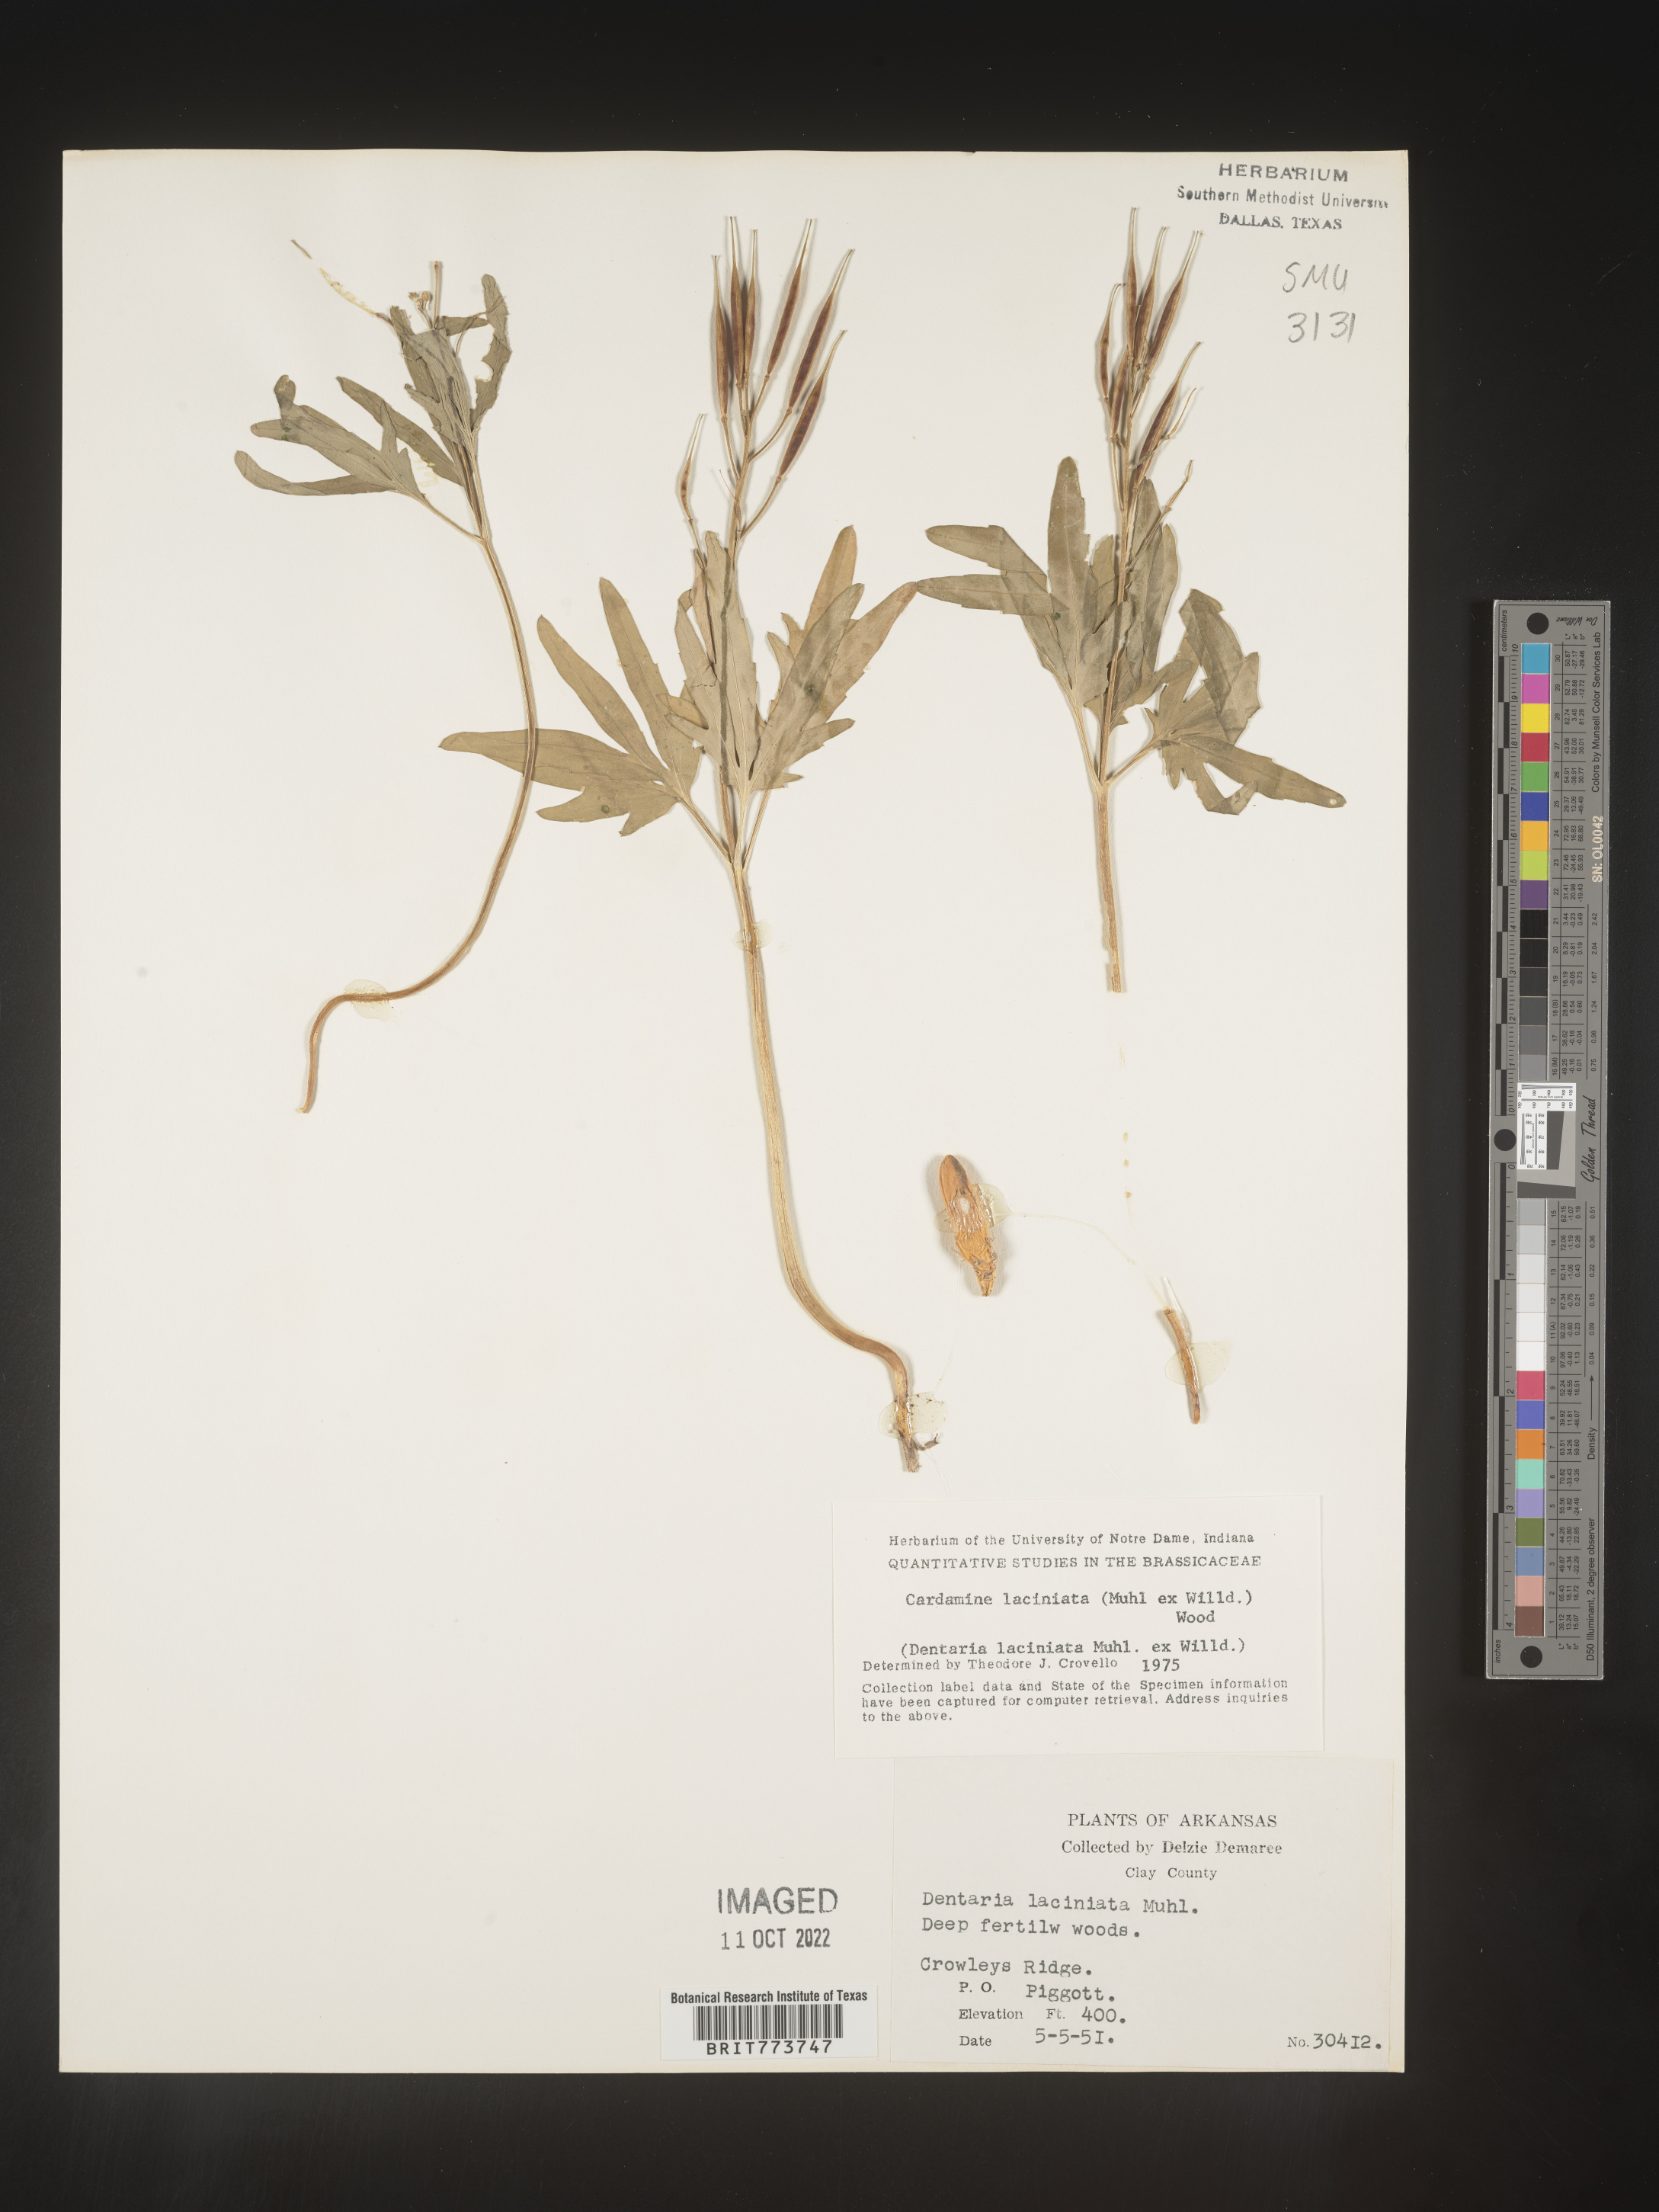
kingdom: Plantae
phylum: Tracheophyta
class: Magnoliopsida
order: Brassicales
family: Brassicaceae
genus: Rorippa
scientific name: Rorippa laciniata
